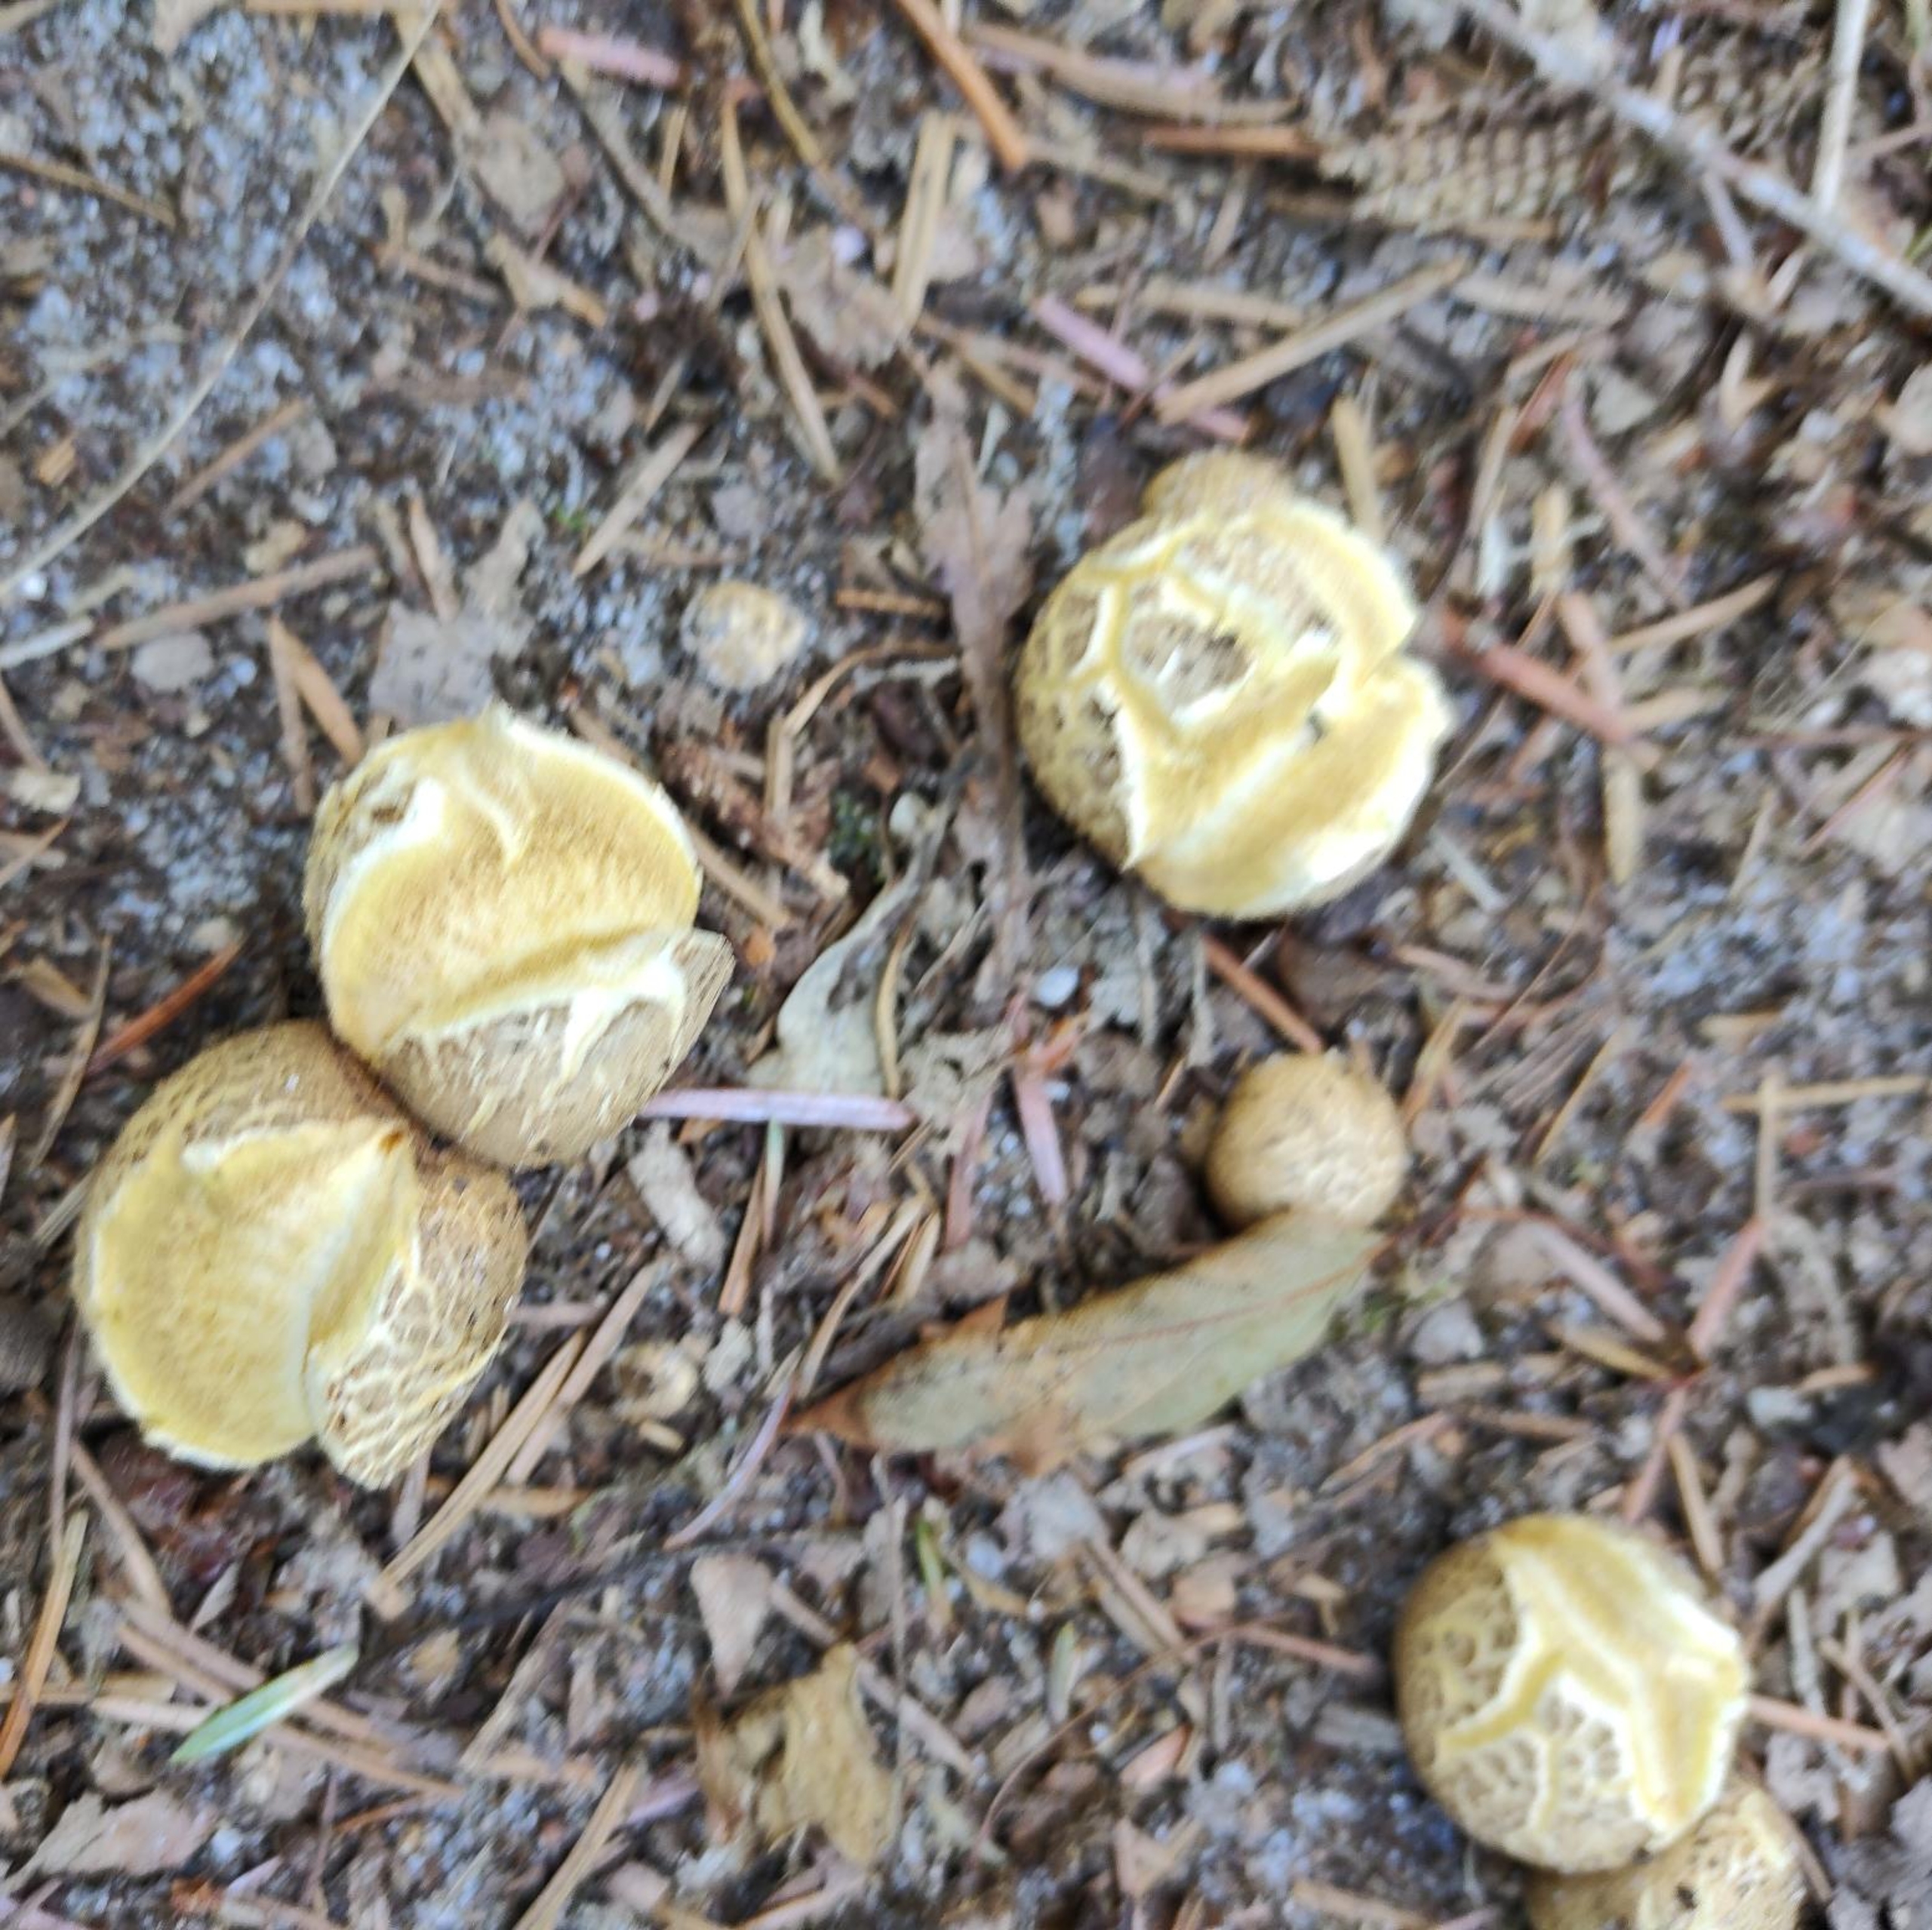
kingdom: Fungi
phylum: Basidiomycota
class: Agaricomycetes
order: Boletales
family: Sclerodermataceae
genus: Scleroderma
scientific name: Scleroderma citrinum
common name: Almindelig bruskbold
